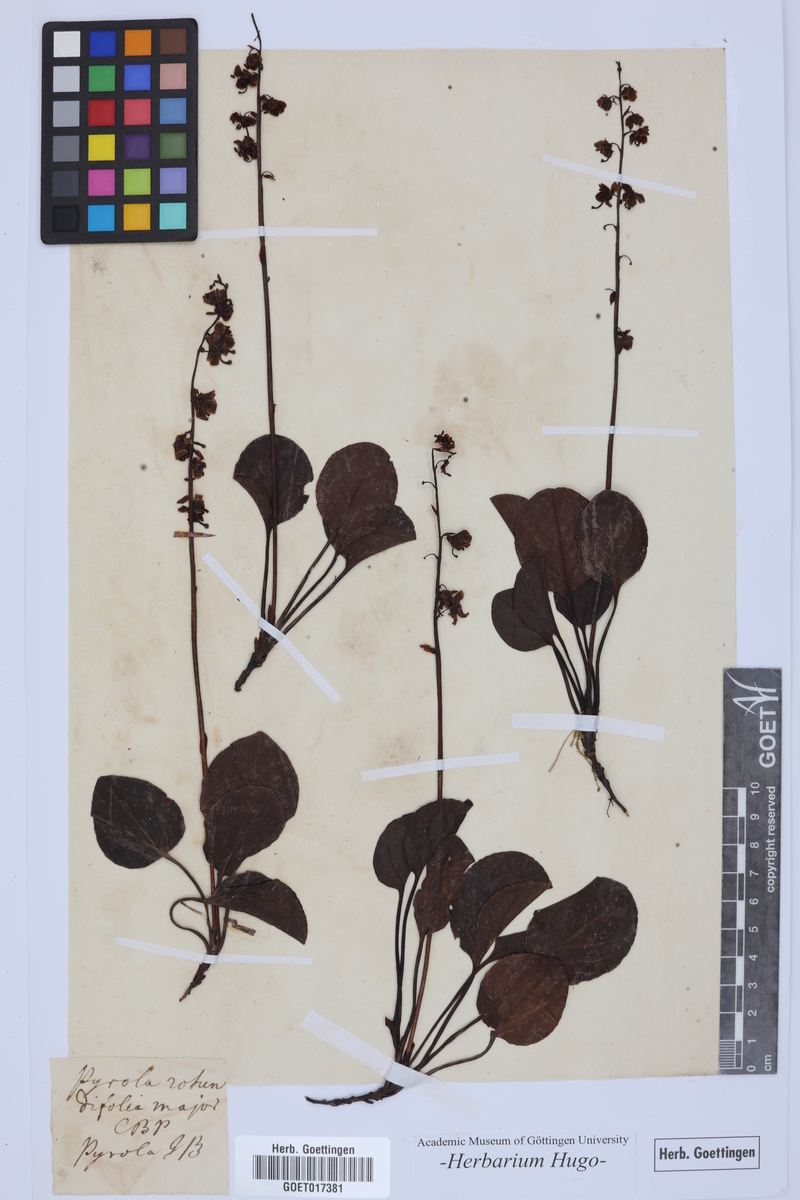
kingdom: Plantae
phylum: Tracheophyta
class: Magnoliopsida
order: Ericales
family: Ericaceae
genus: Pyrola
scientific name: Pyrola rotundifolia
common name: Round-leaved wintergreen
